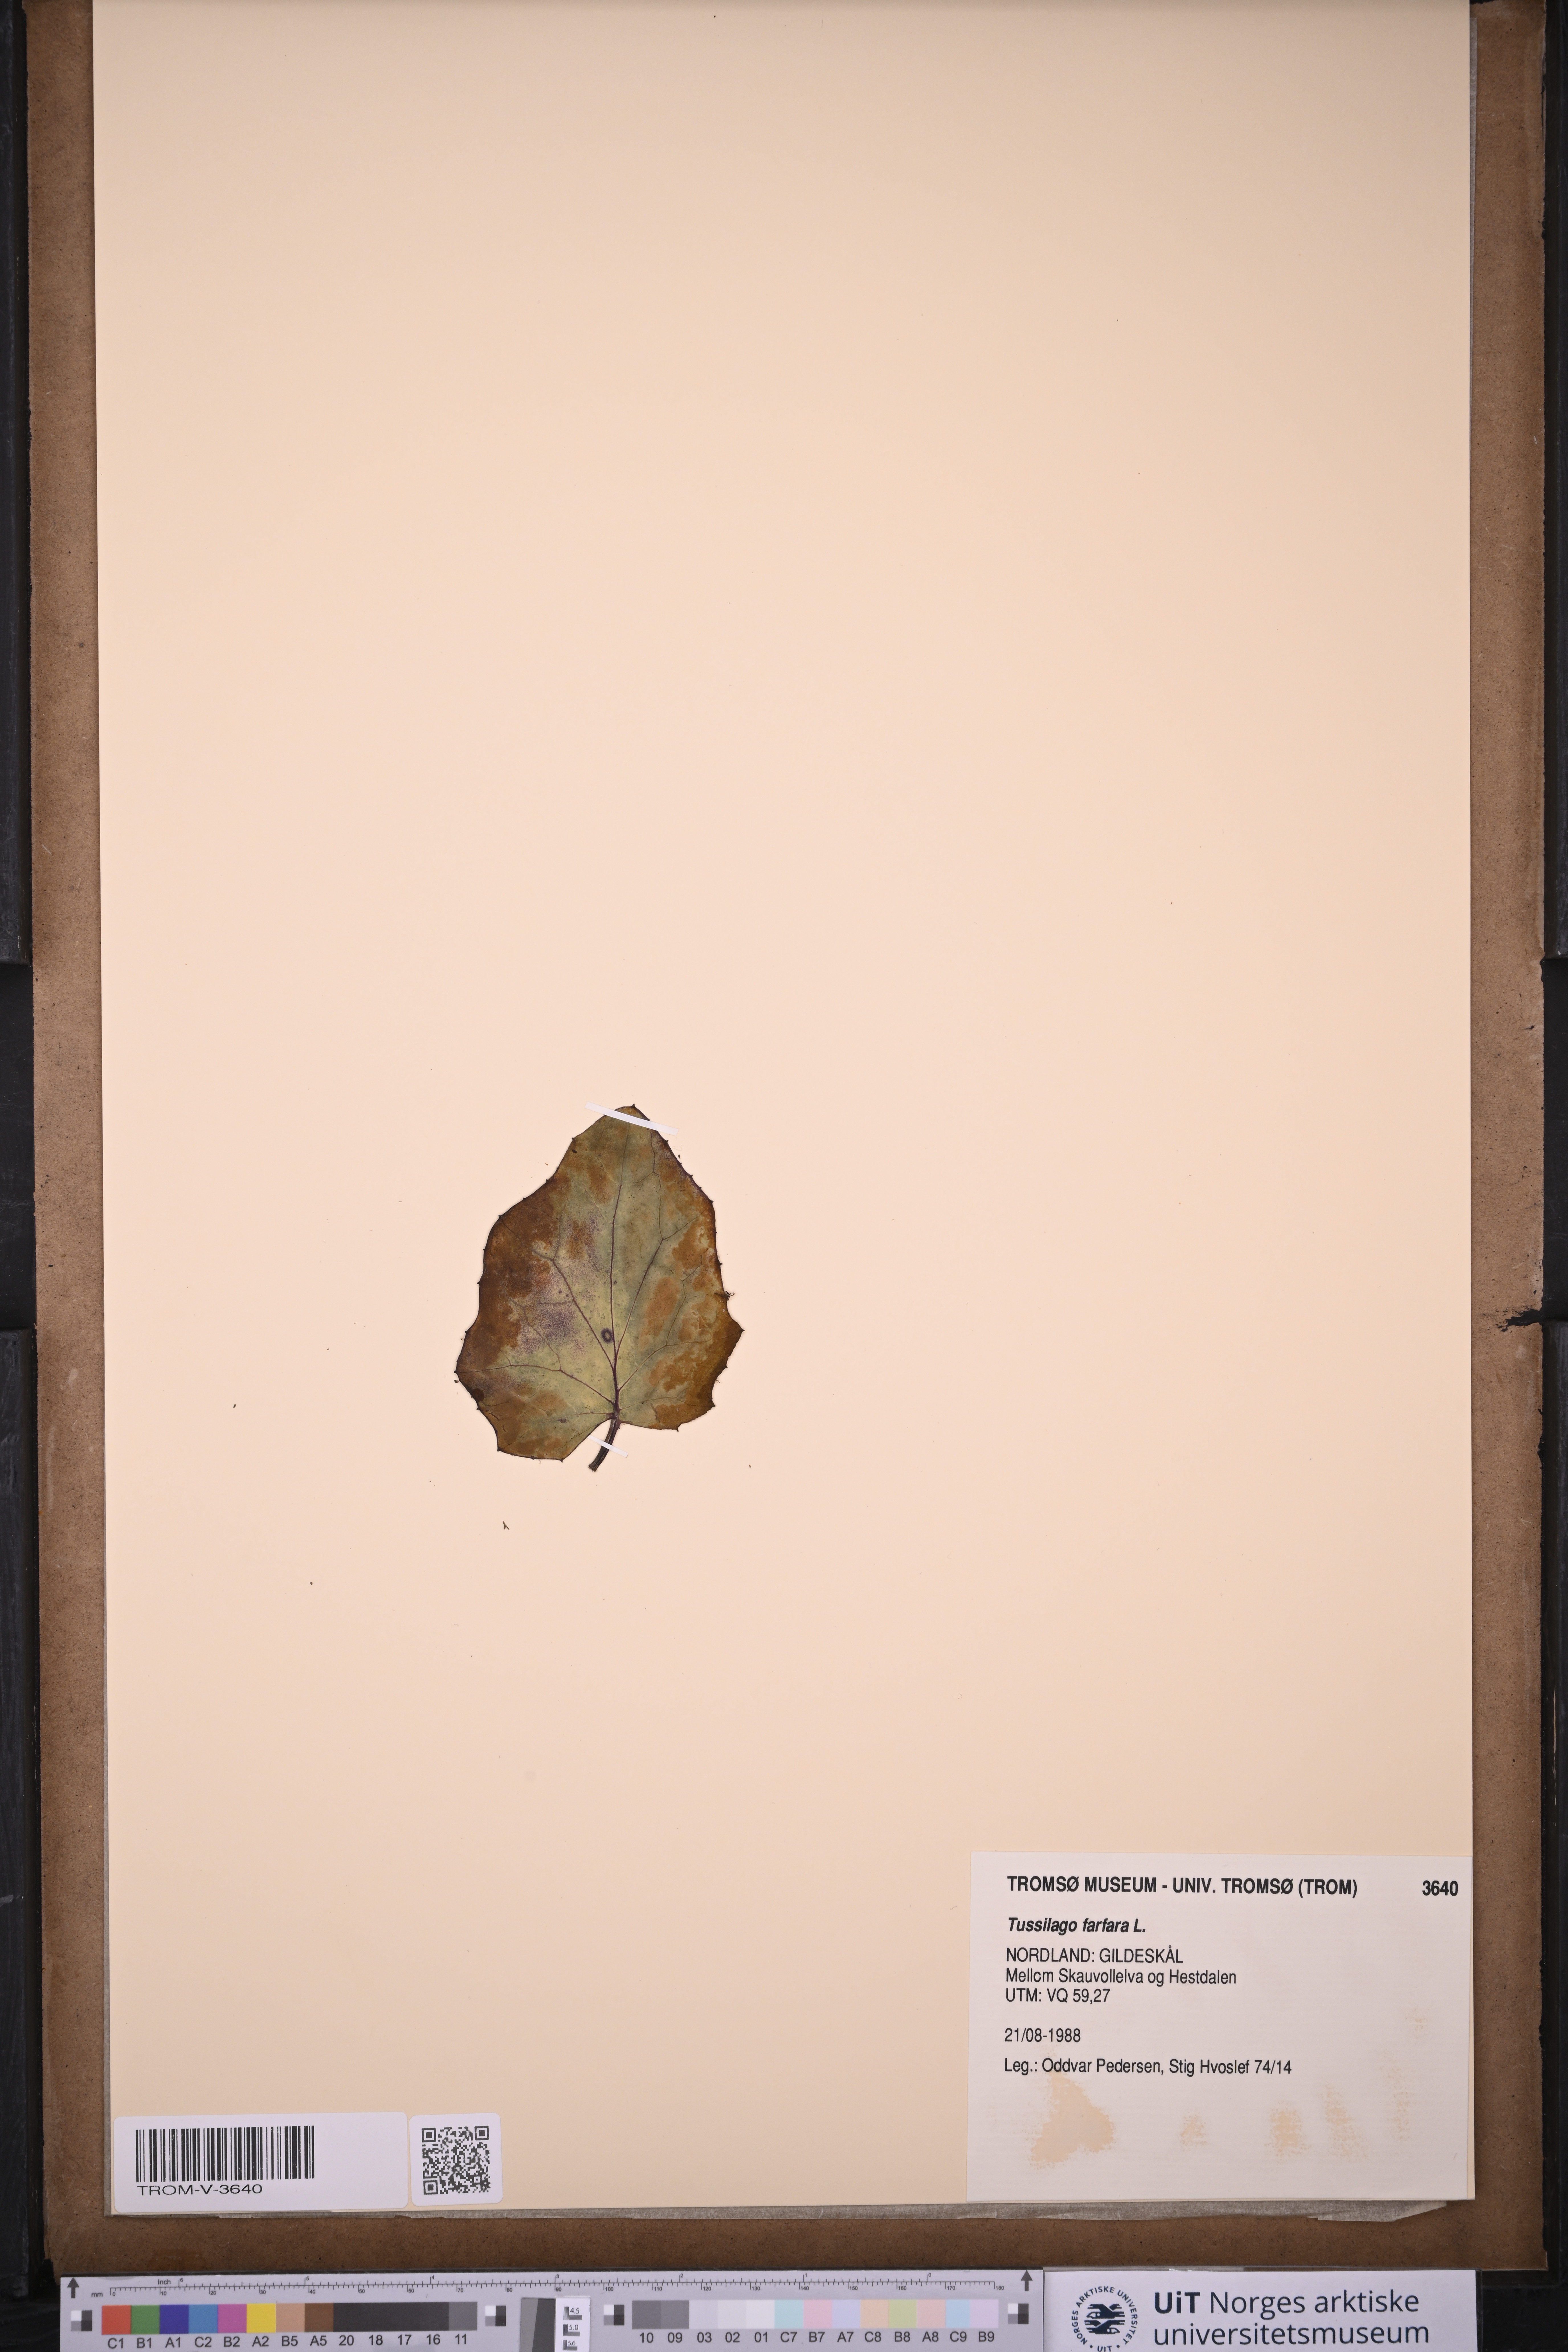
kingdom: Plantae
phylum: Tracheophyta
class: Magnoliopsida
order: Asterales
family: Asteraceae
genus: Tussilago
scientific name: Tussilago farfara
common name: Coltsfoot
